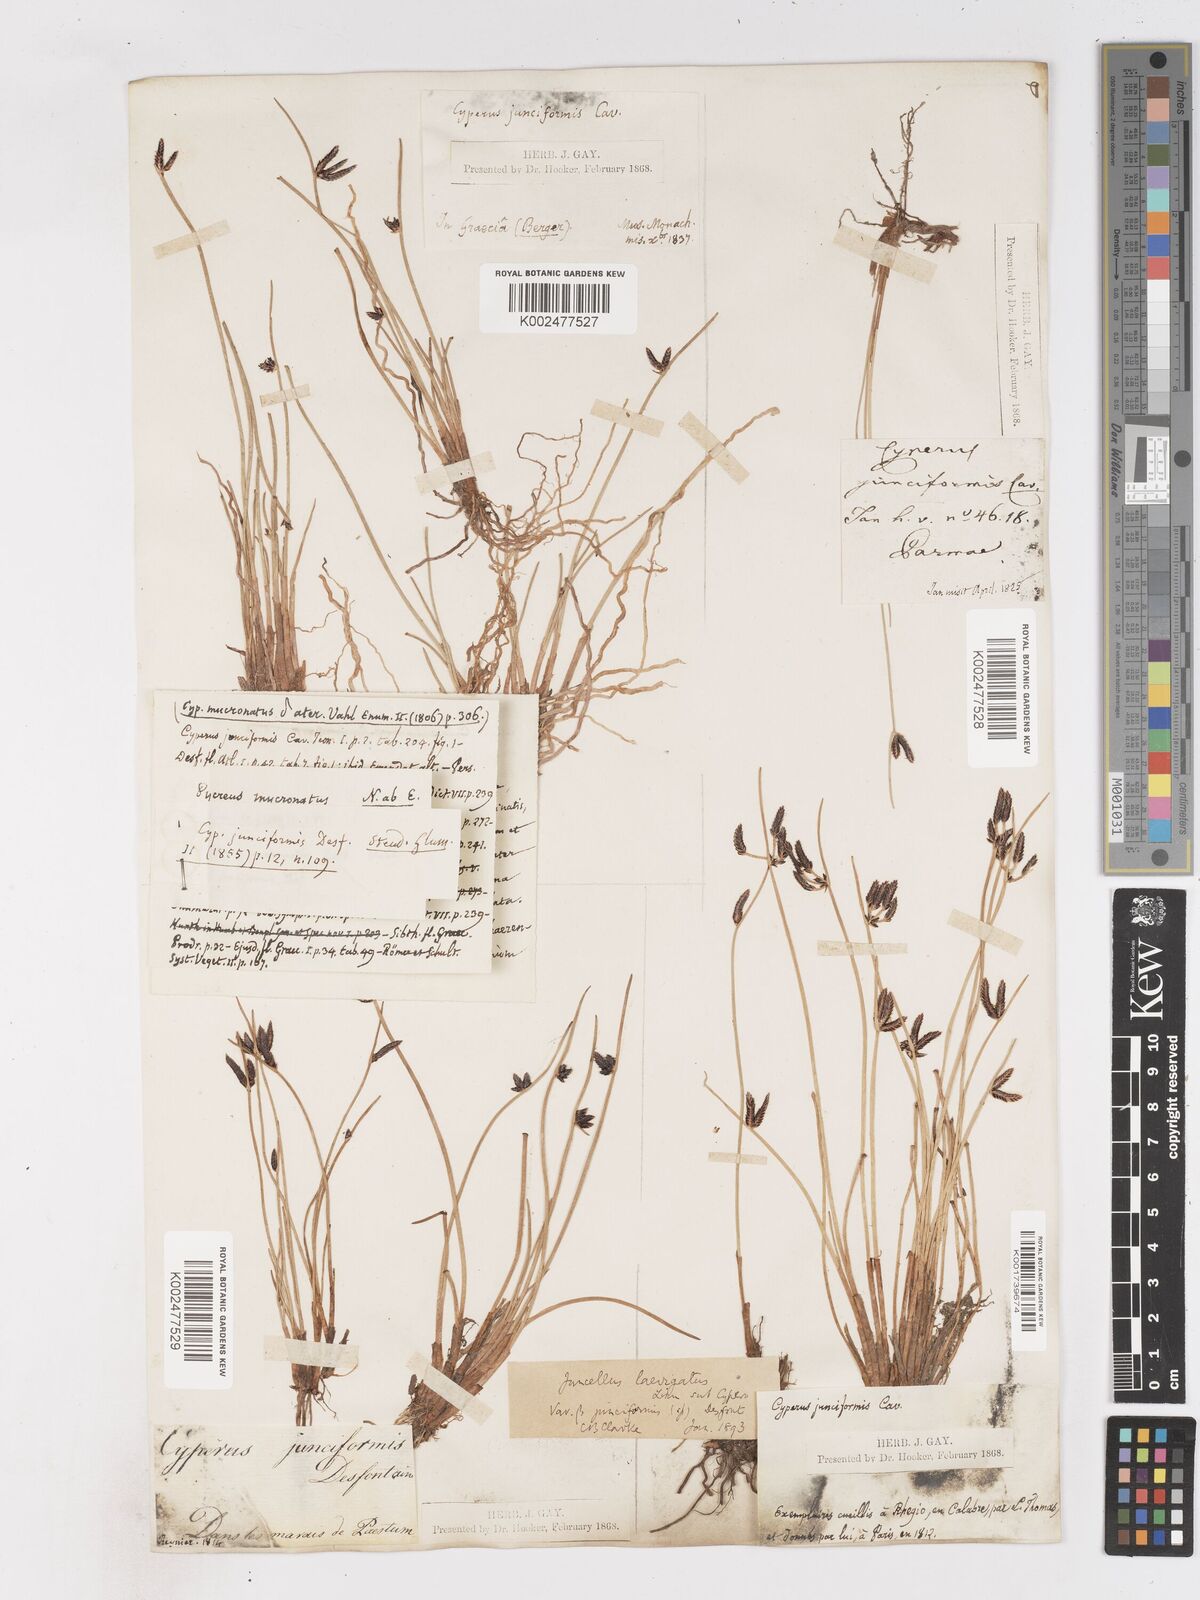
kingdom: Plantae
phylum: Tracheophyta
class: Liliopsida
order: Poales
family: Cyperaceae
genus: Cyperus
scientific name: Cyperus laevigatus
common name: Smooth flat sedge
